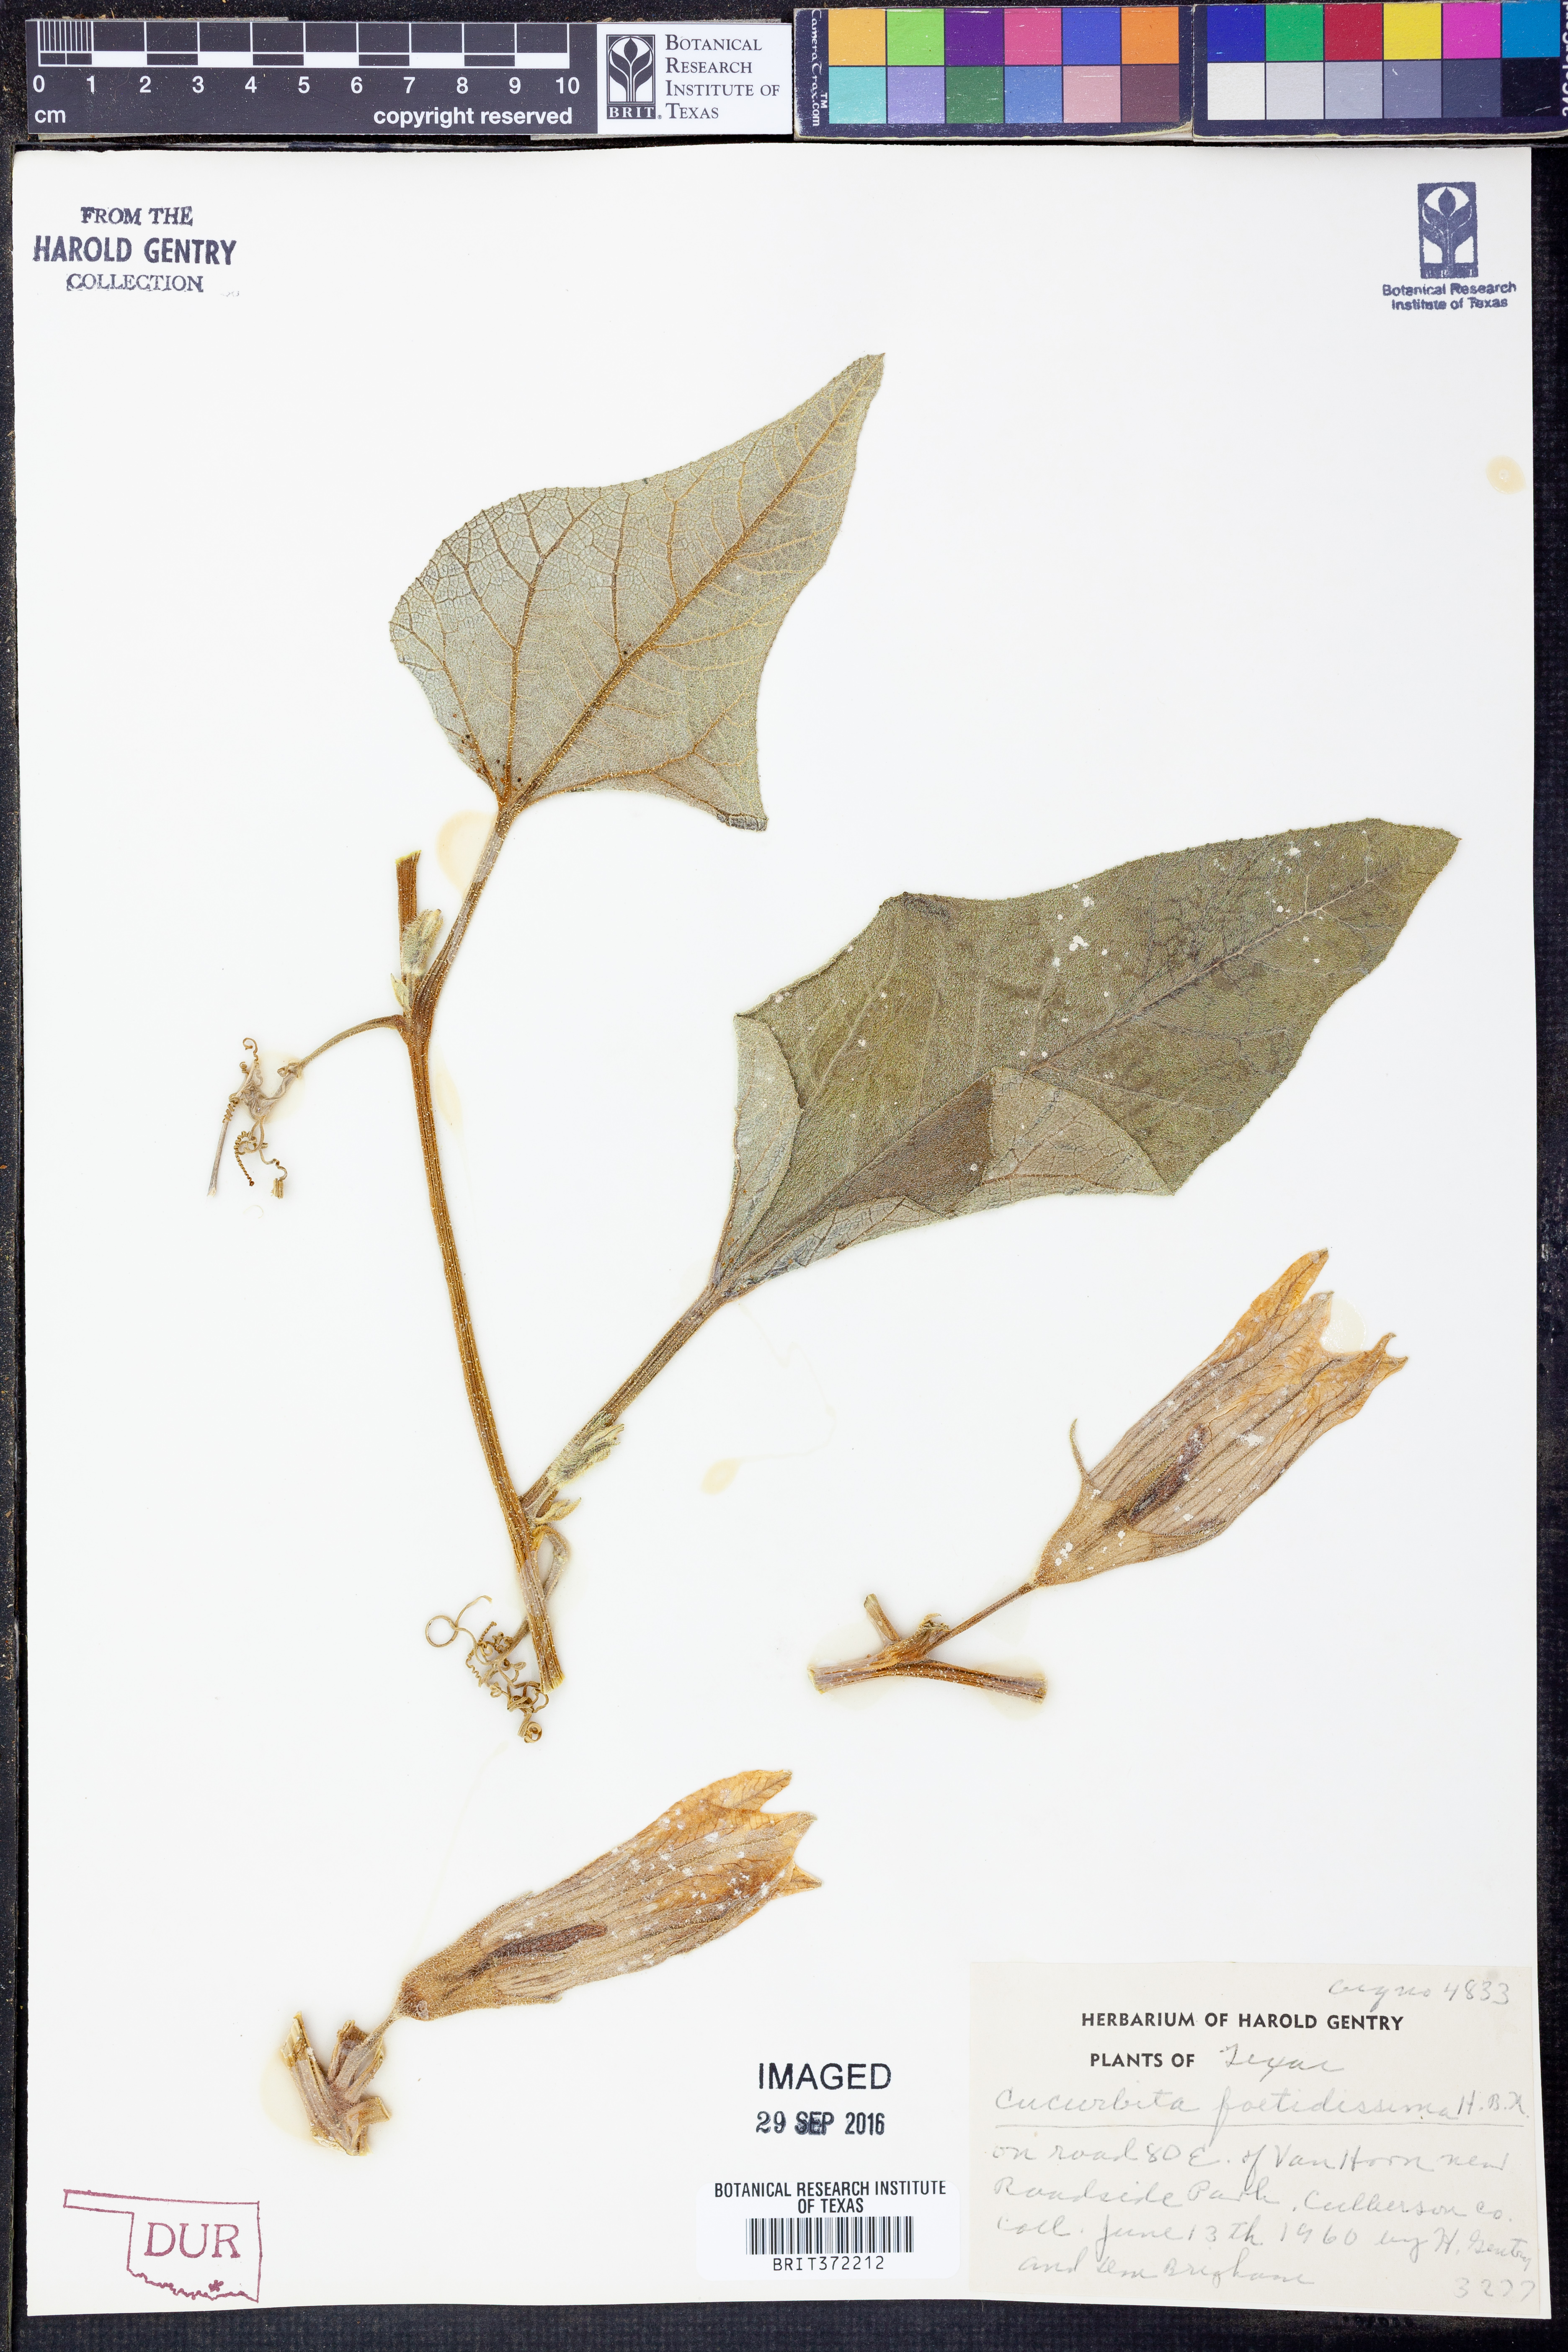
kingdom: Plantae
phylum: Tracheophyta
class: Magnoliopsida
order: Cucurbitales
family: Cucurbitaceae
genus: Cucurbita
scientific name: Cucurbita foetidissima
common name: Buffalo gourd
